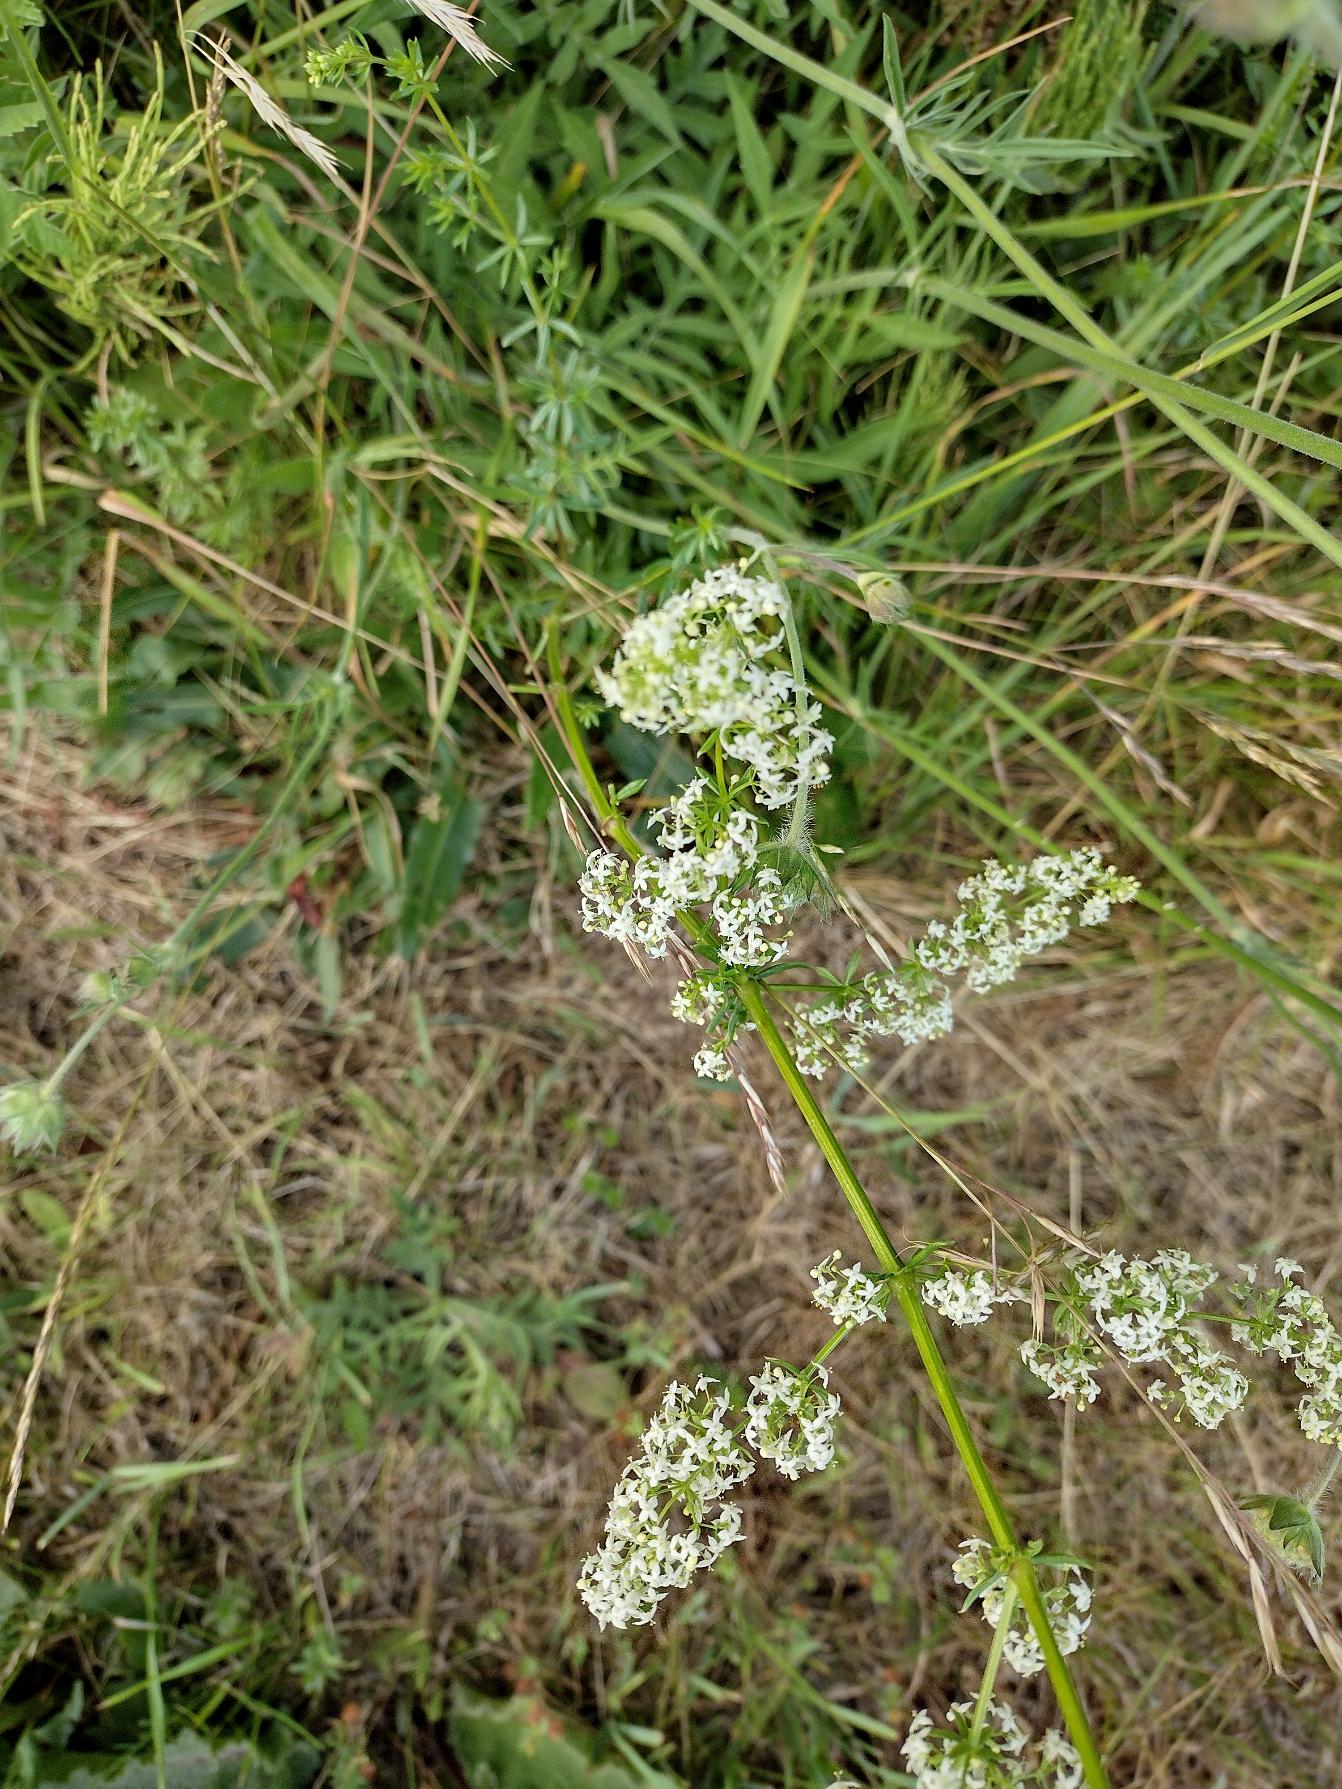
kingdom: Plantae
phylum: Tracheophyta
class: Magnoliopsida
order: Gentianales
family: Rubiaceae
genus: Galium
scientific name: Galium mollugo
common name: Hvid snerre
